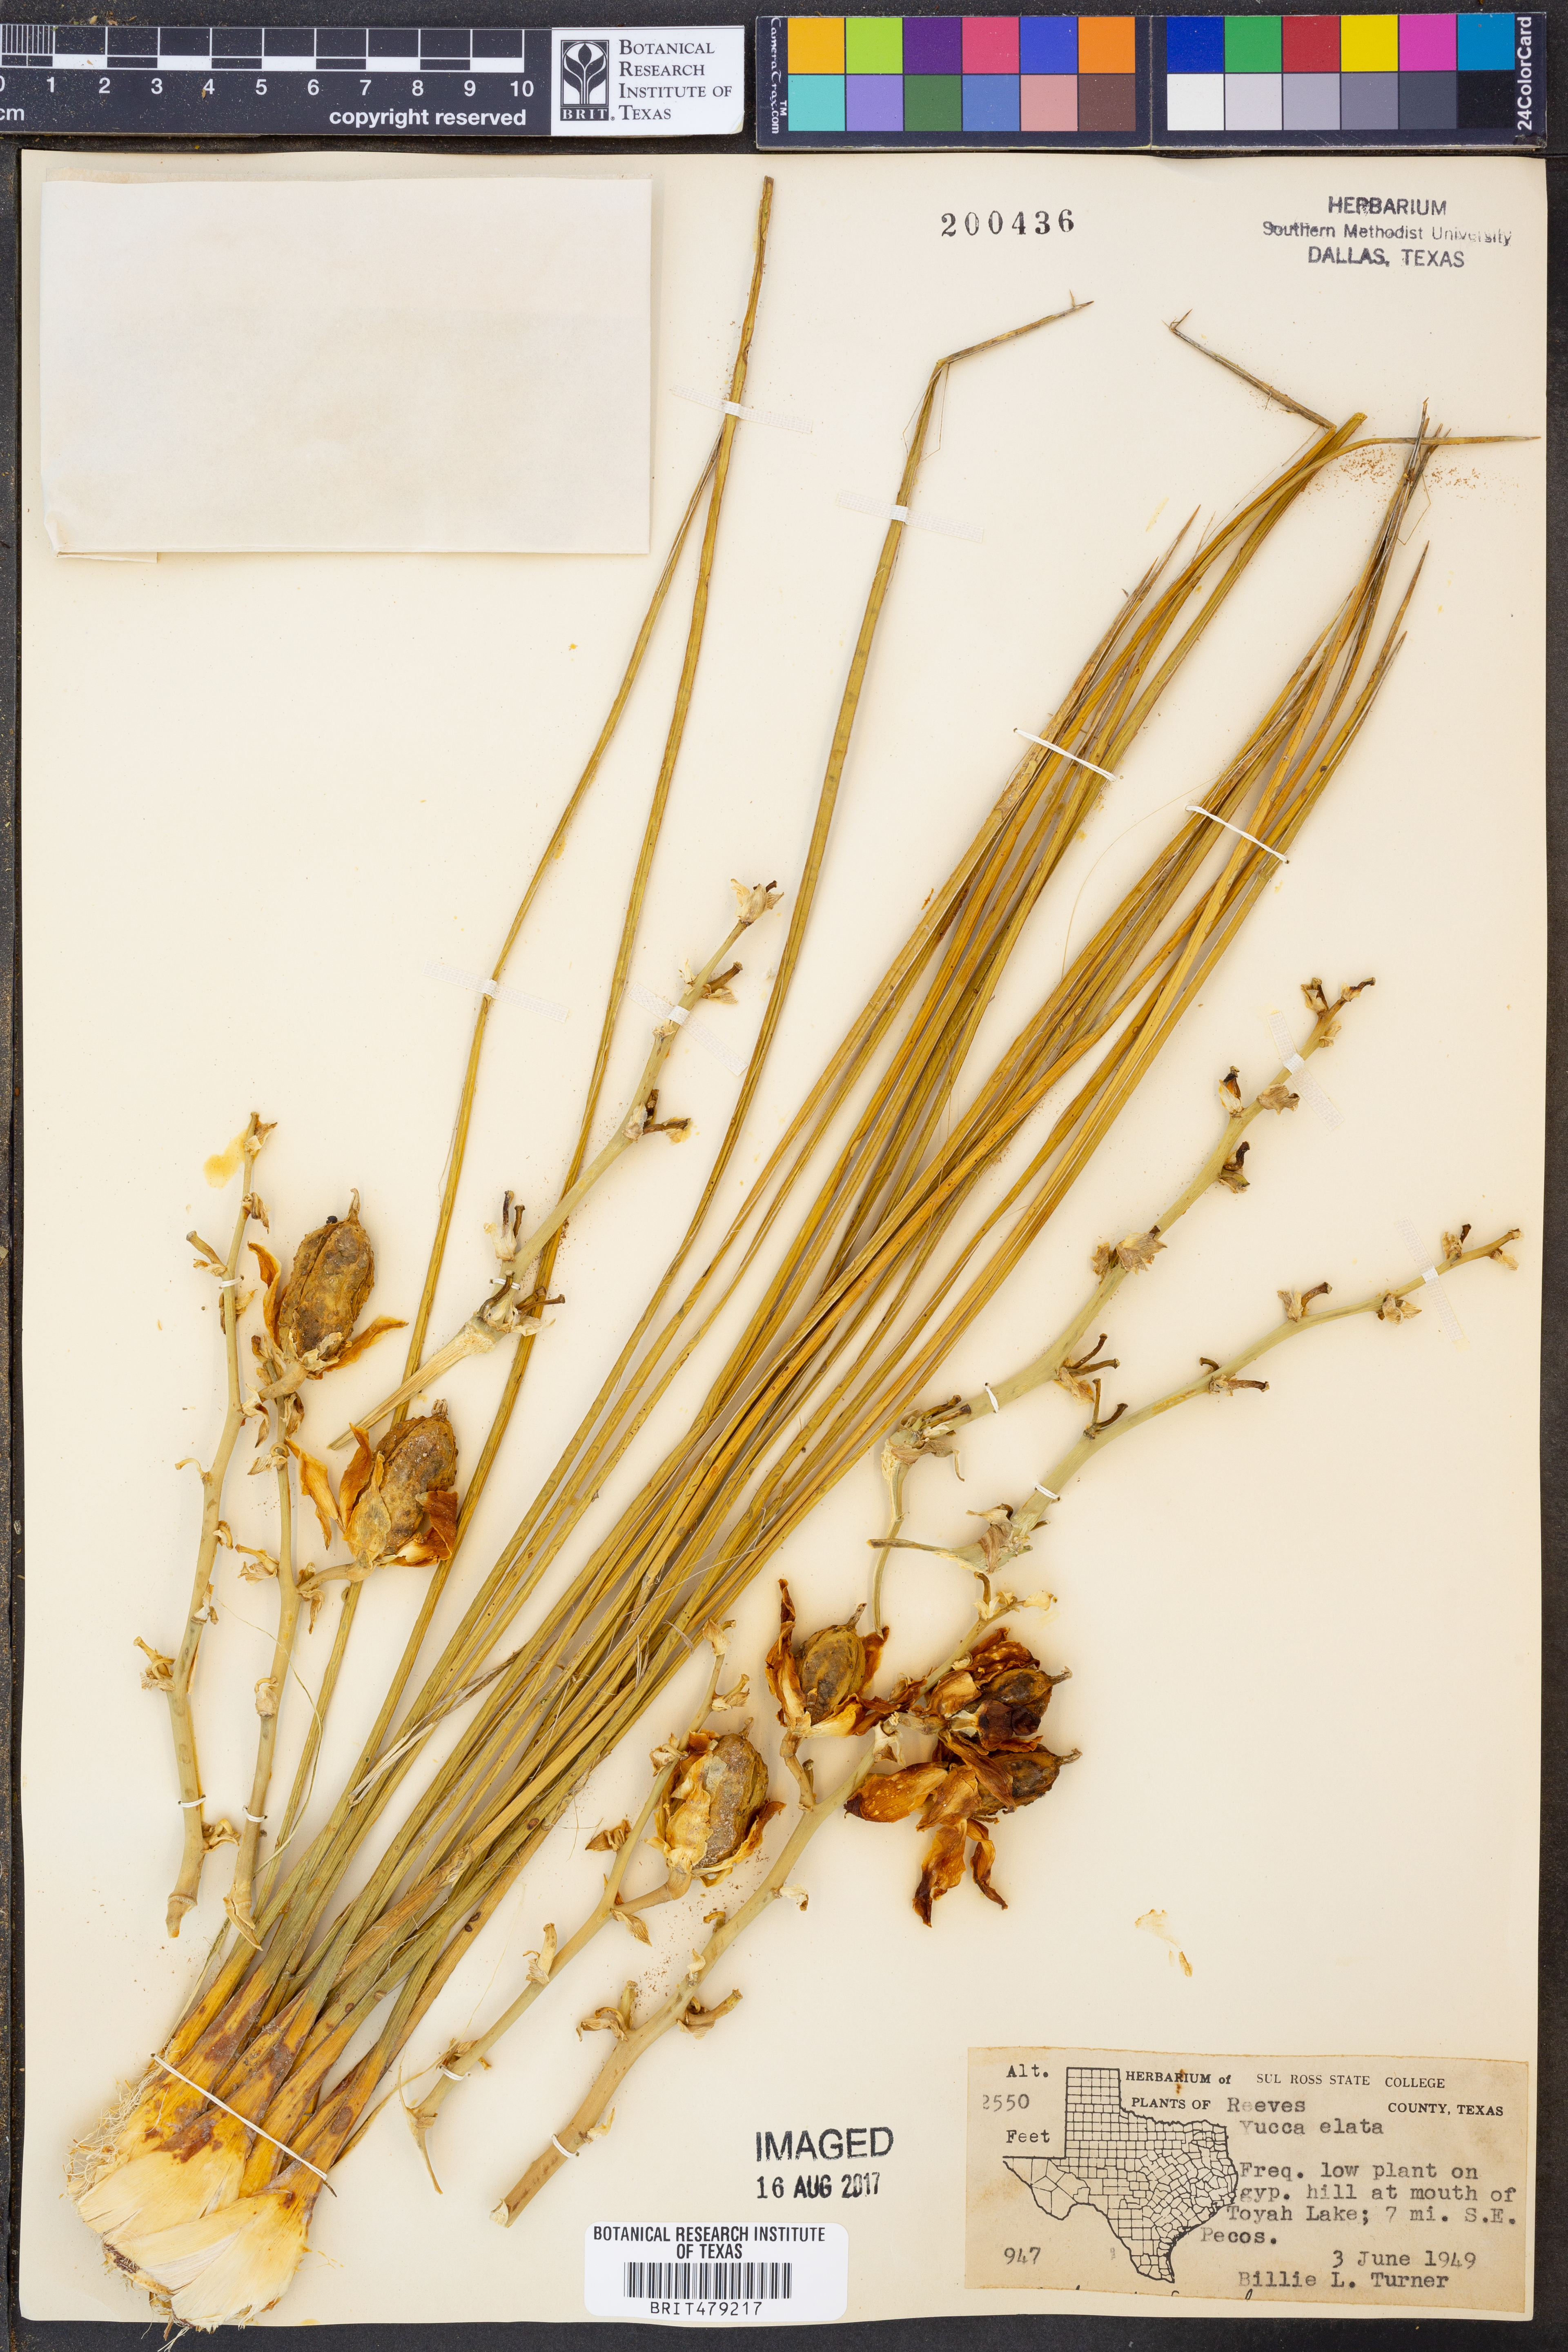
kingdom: Plantae
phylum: Tracheophyta
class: Liliopsida
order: Asparagales
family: Asparagaceae
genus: Yucca
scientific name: Yucca elata
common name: Palmella
